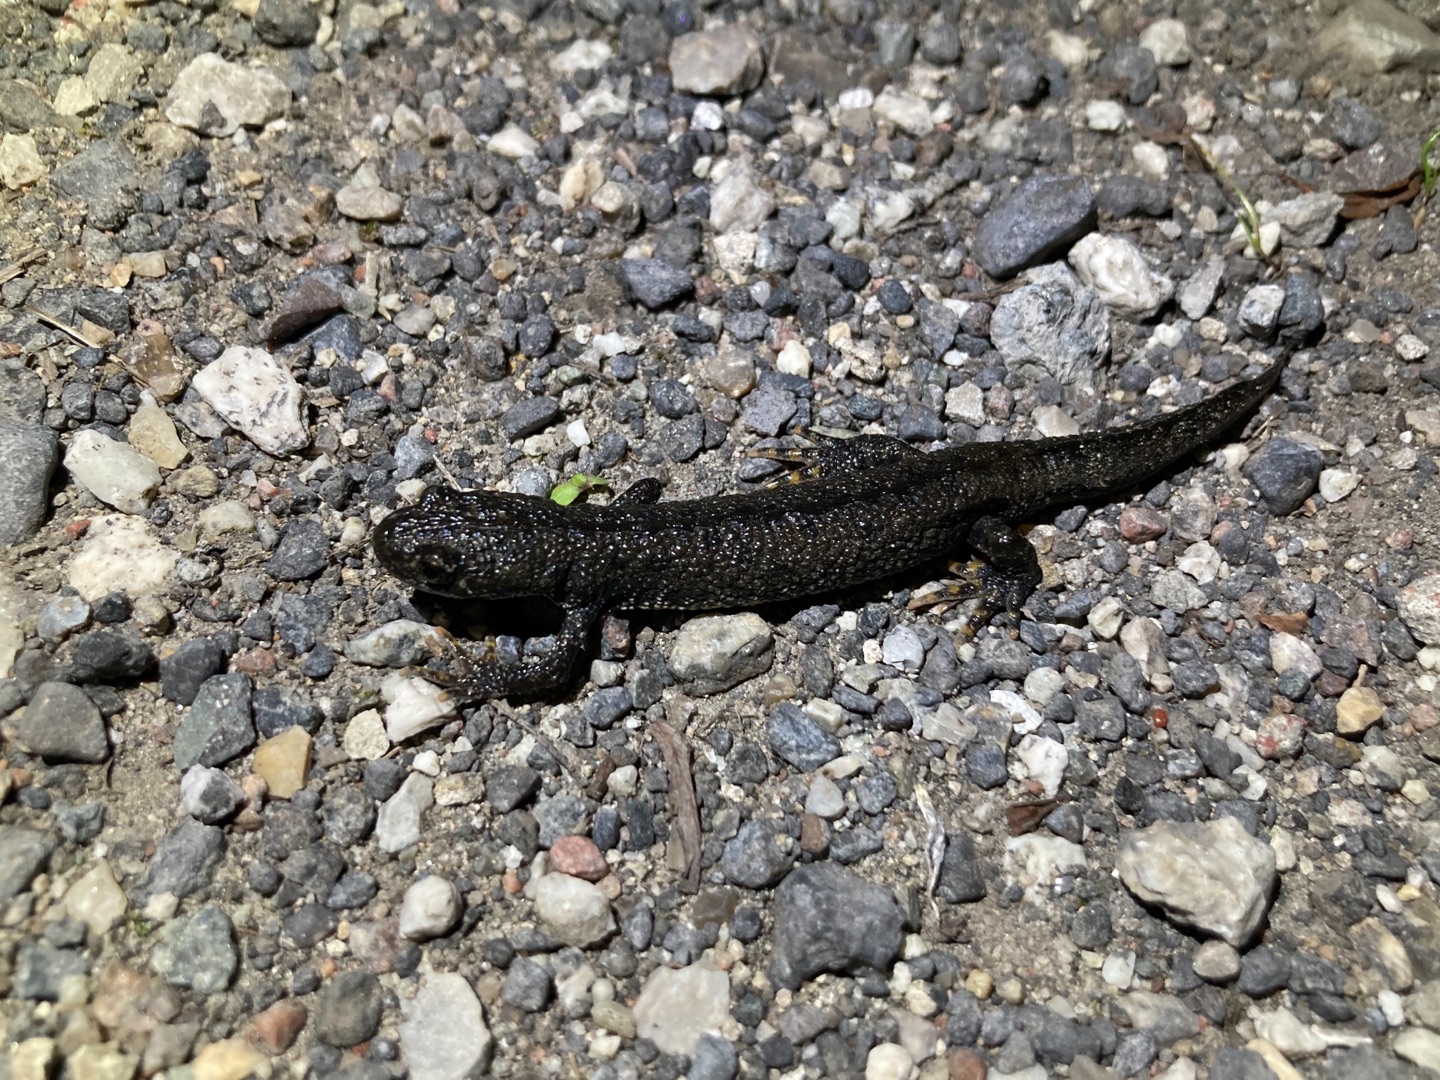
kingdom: Animalia
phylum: Chordata
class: Amphibia
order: Caudata
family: Salamandridae
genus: Triturus
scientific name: Triturus cristatus
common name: Stor vandsalamander
